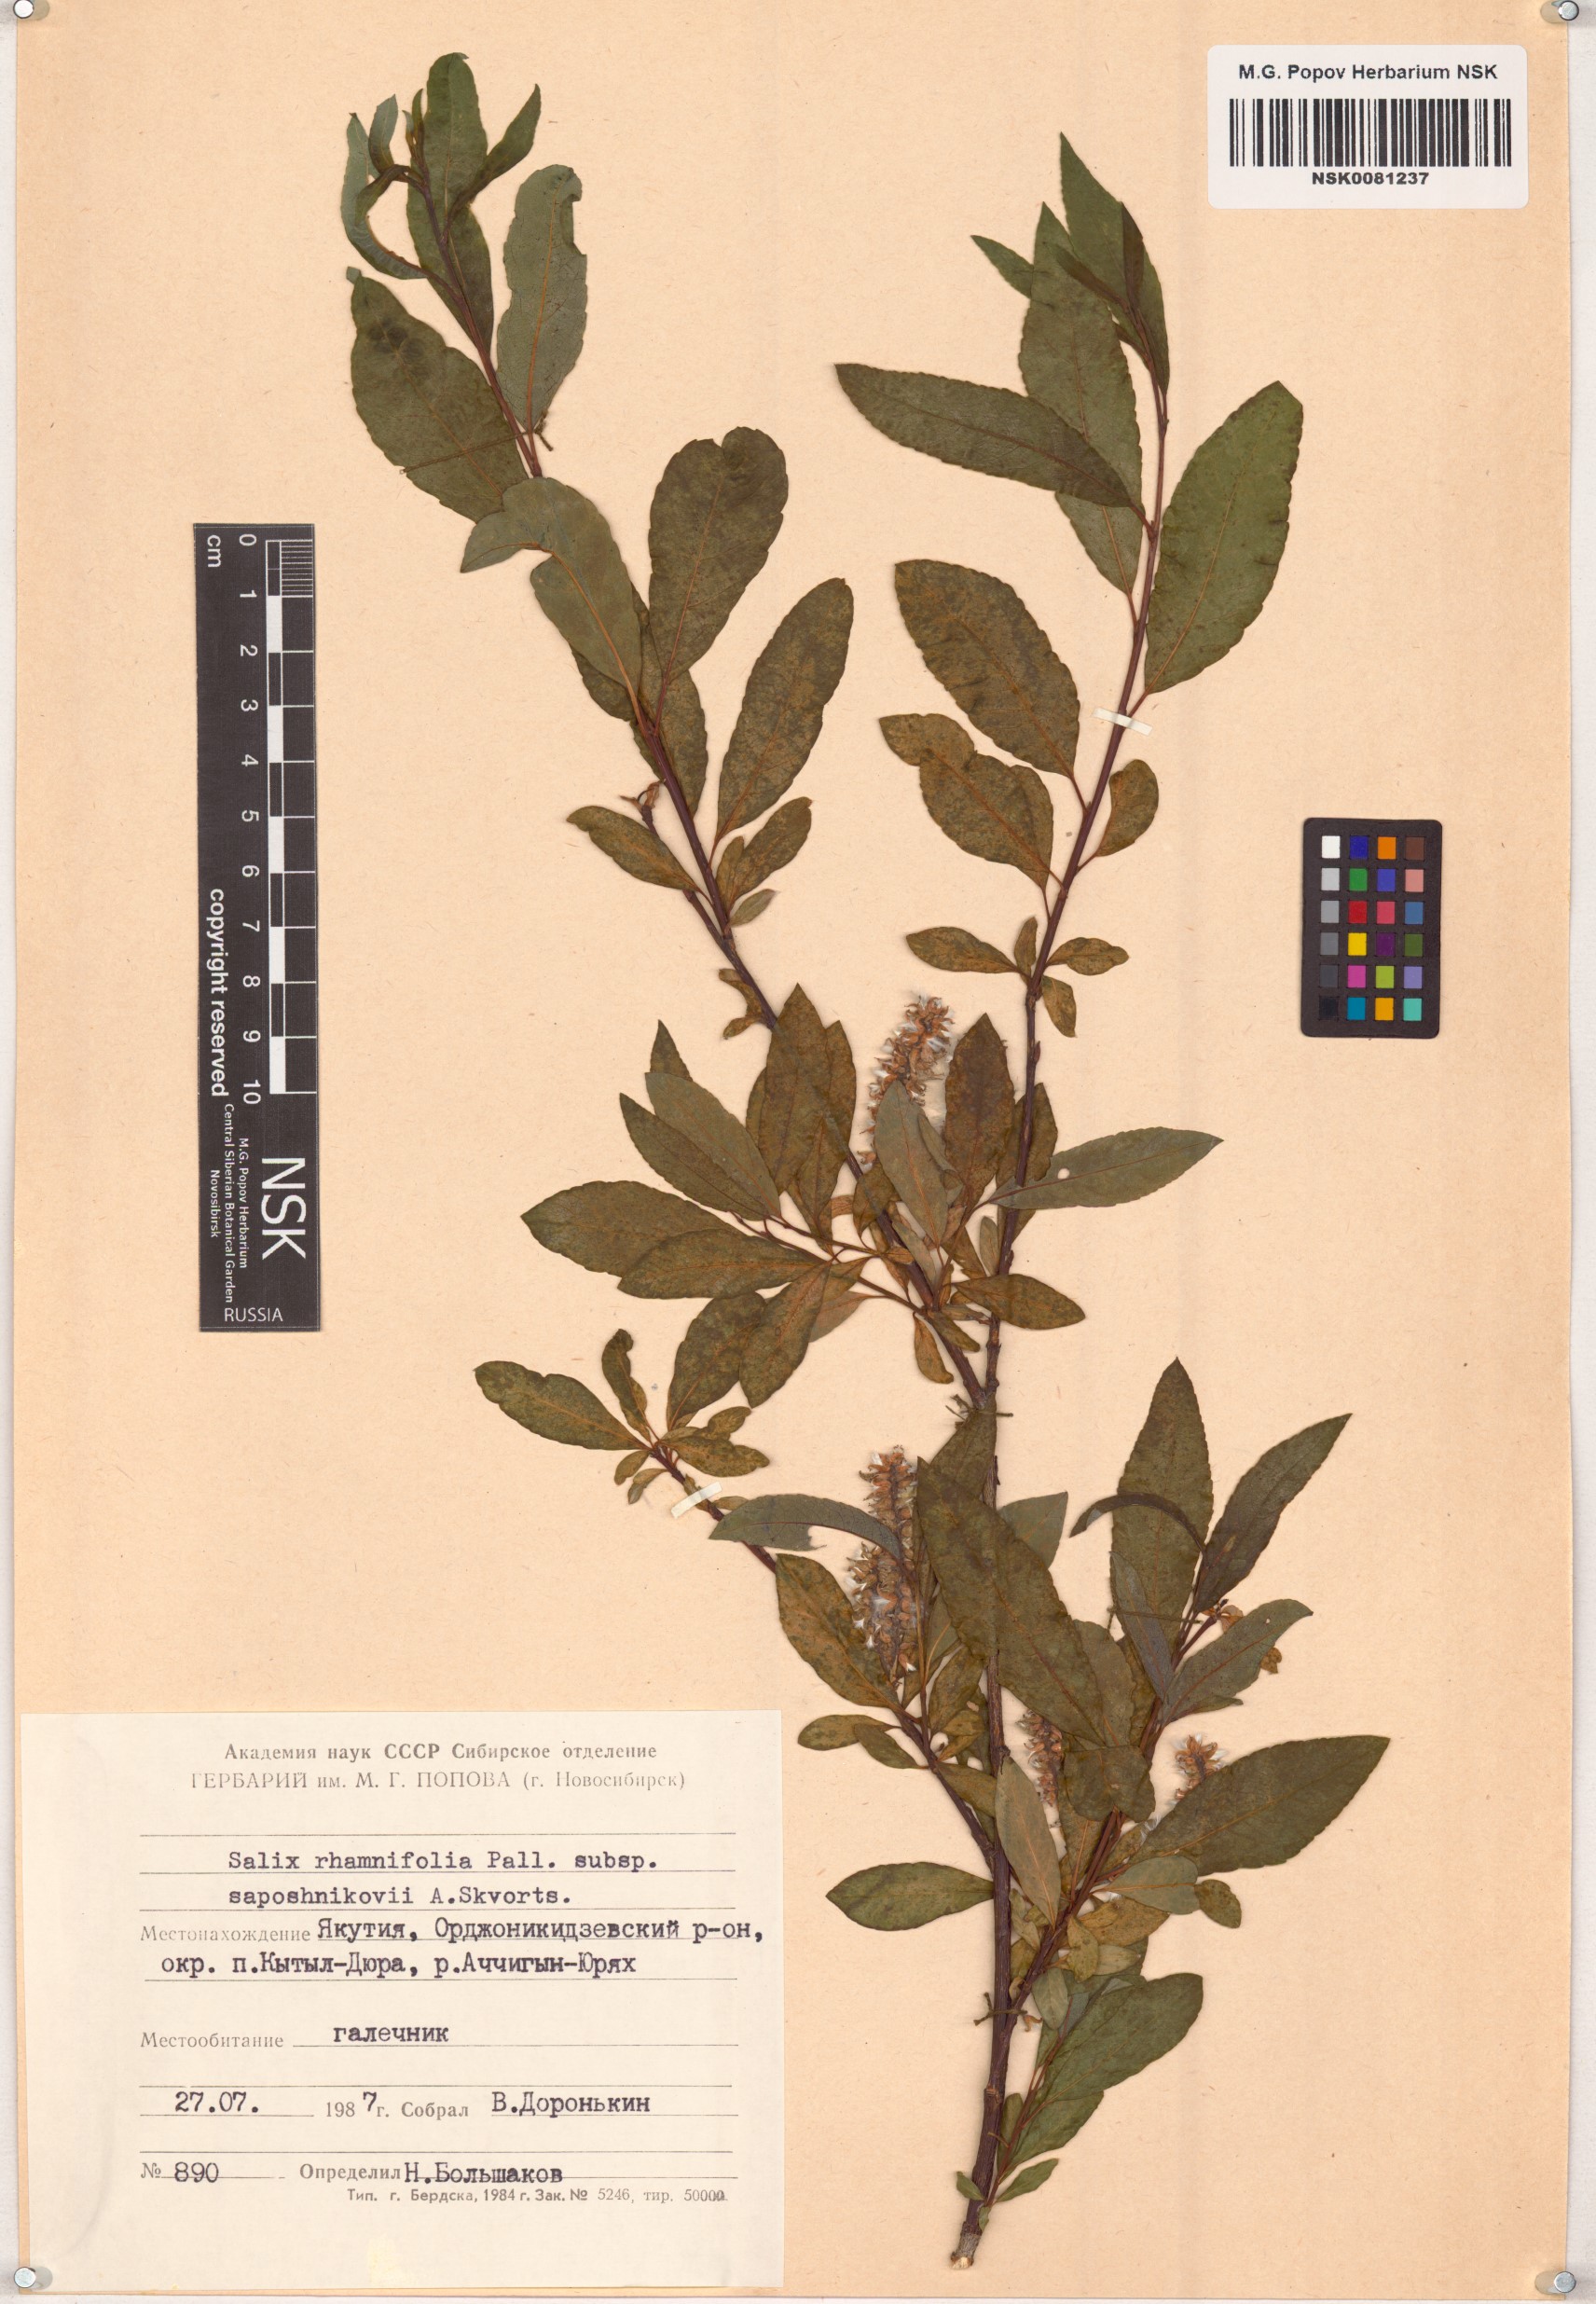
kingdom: Plantae
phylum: Tracheophyta
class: Magnoliopsida
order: Malpighiales
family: Salicaceae
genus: Salix
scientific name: Salix saposhnikovii
